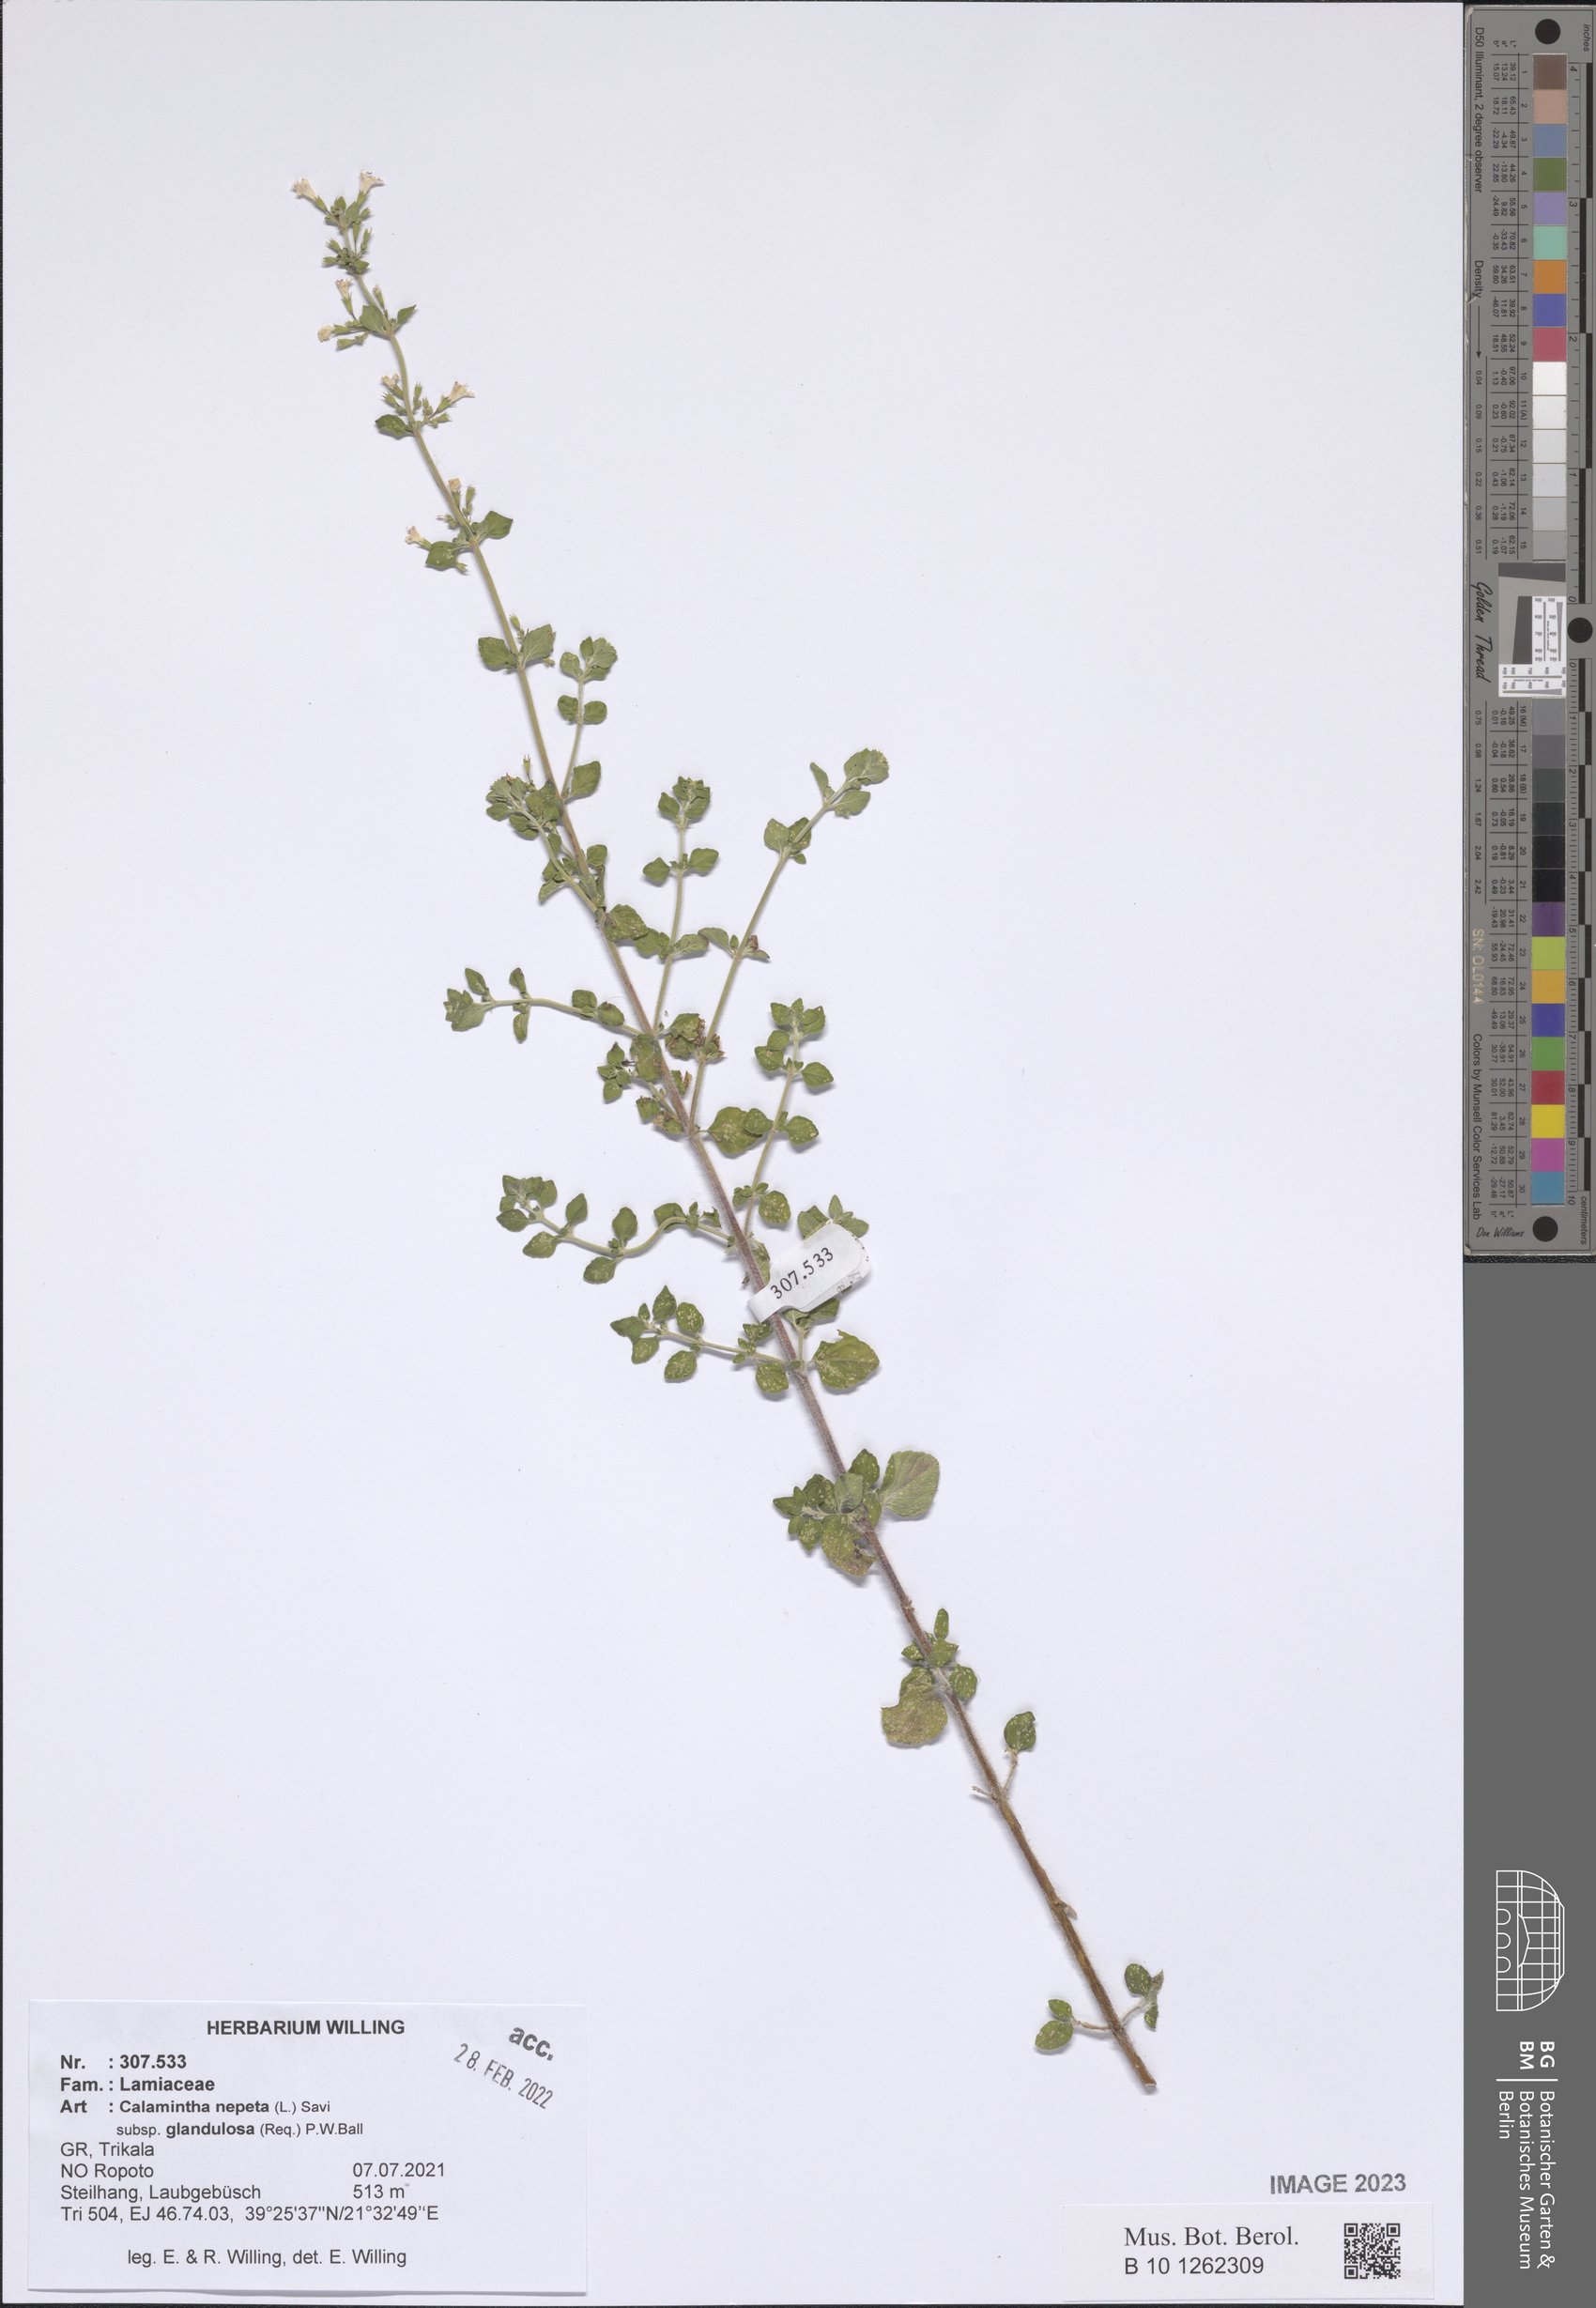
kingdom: Plantae
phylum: Tracheophyta
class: Magnoliopsida
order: Lamiales
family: Lamiaceae
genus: Clinopodium
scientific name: Clinopodium nepeta
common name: Lesser calamint
